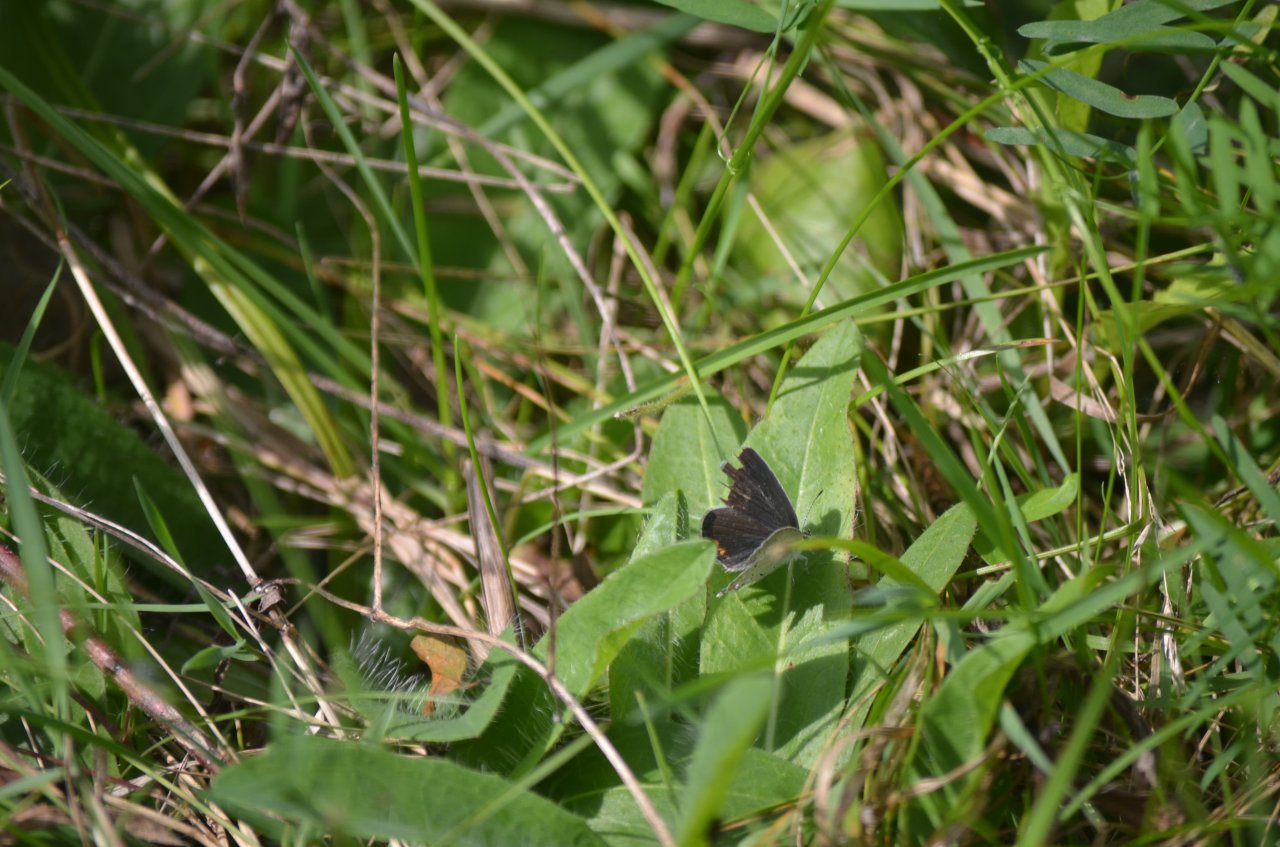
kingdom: Animalia
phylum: Arthropoda
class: Insecta
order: Lepidoptera
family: Lycaenidae
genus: Elkalyce
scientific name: Elkalyce comyntas
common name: Eastern Tailed-Blue
